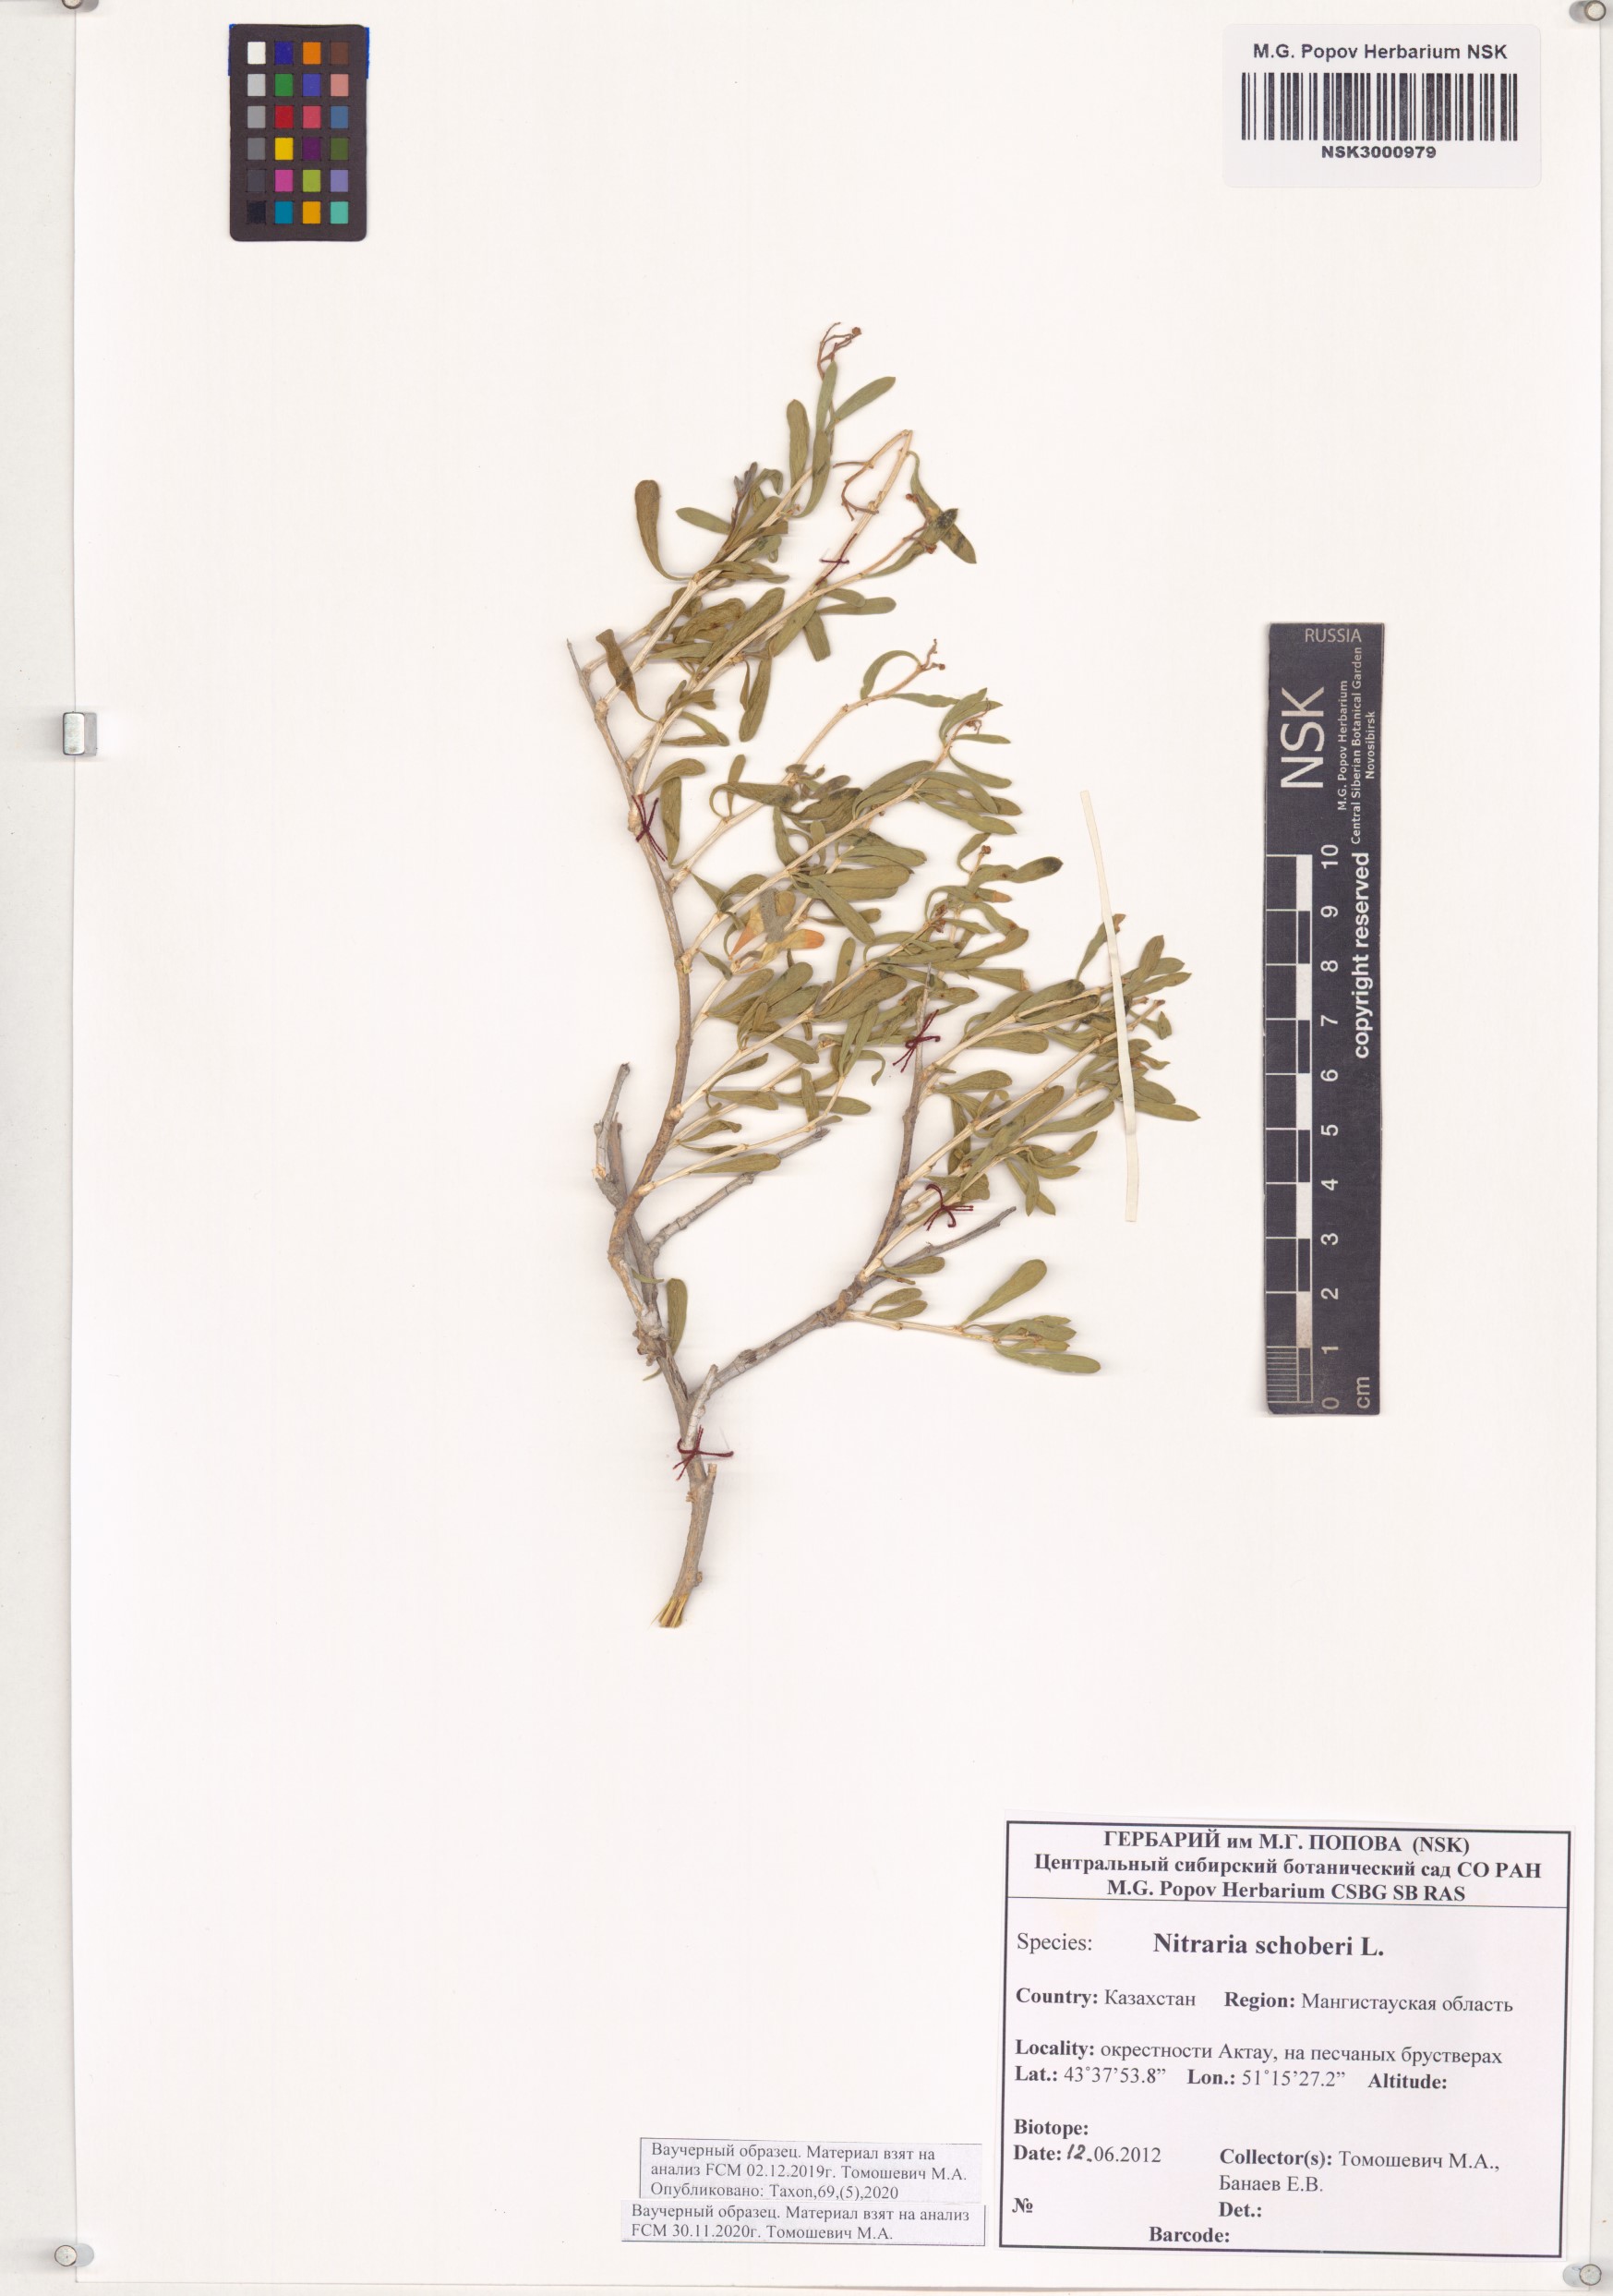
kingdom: Plantae
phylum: Tracheophyta
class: Magnoliopsida
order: Sapindales
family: Nitrariaceae
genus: Nitraria
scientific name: Nitraria schoberi
